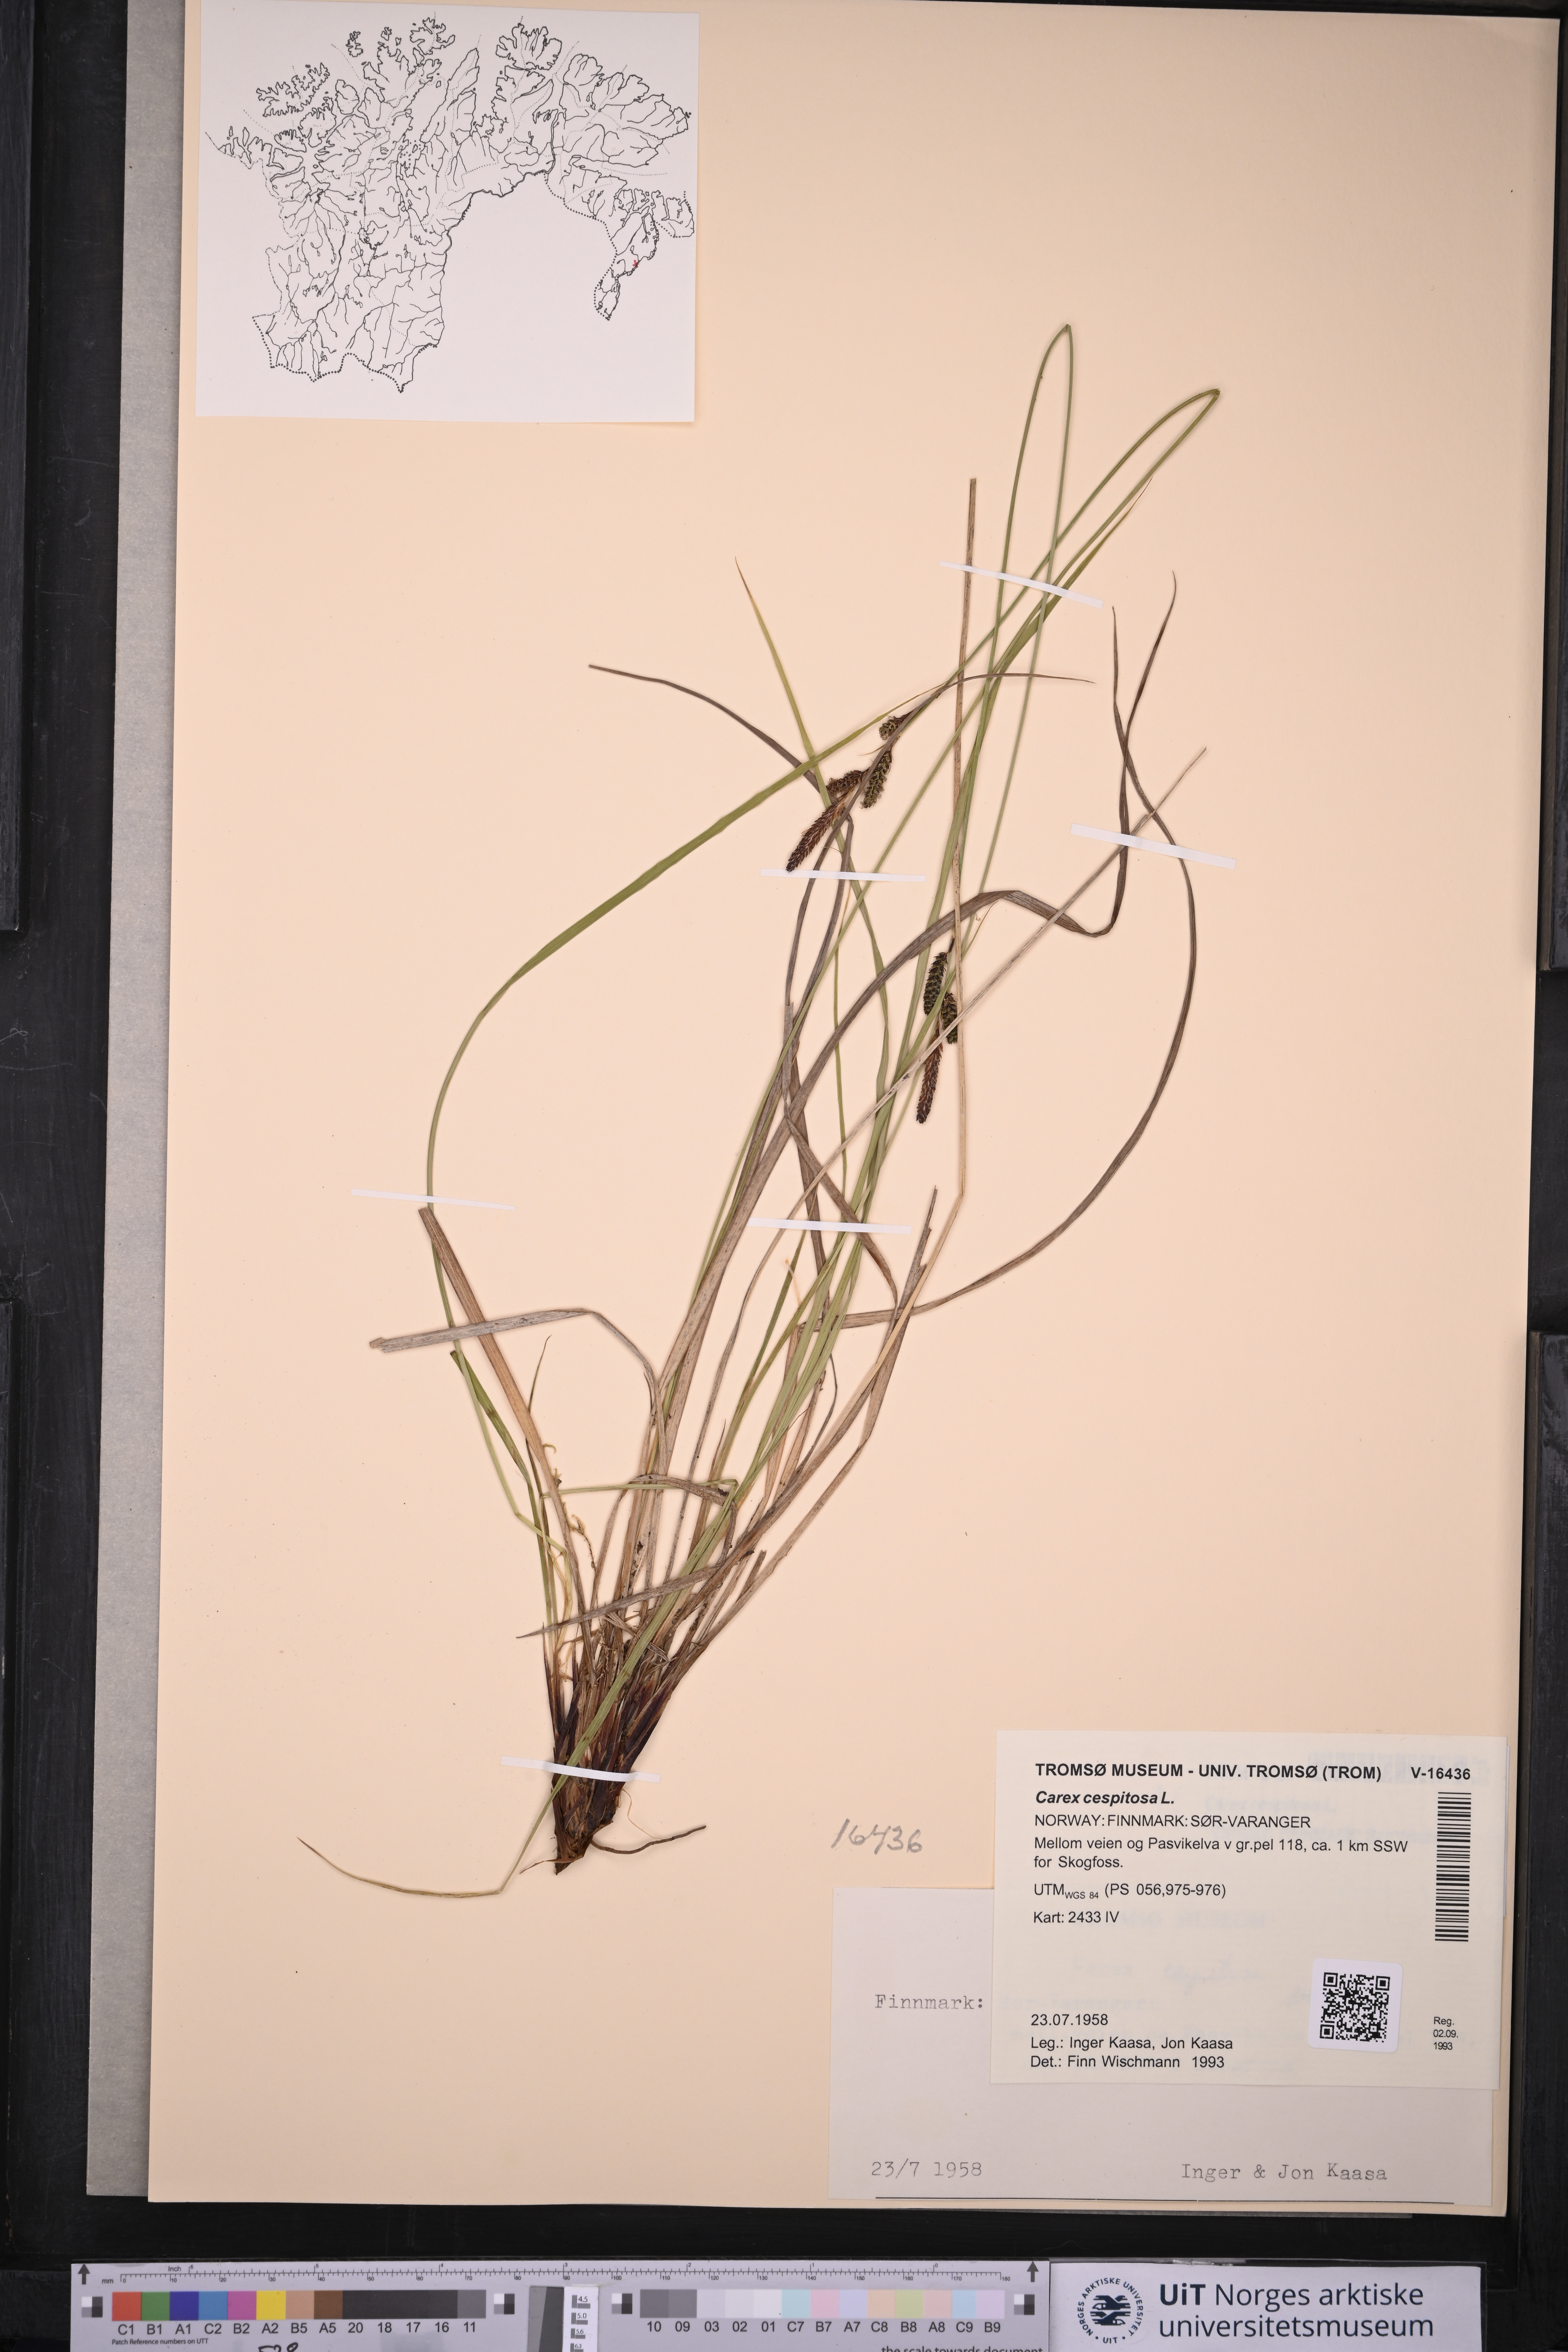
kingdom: Plantae
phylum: Tracheophyta
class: Liliopsida
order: Poales
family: Cyperaceae
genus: Carex
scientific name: Carex cespitosa
